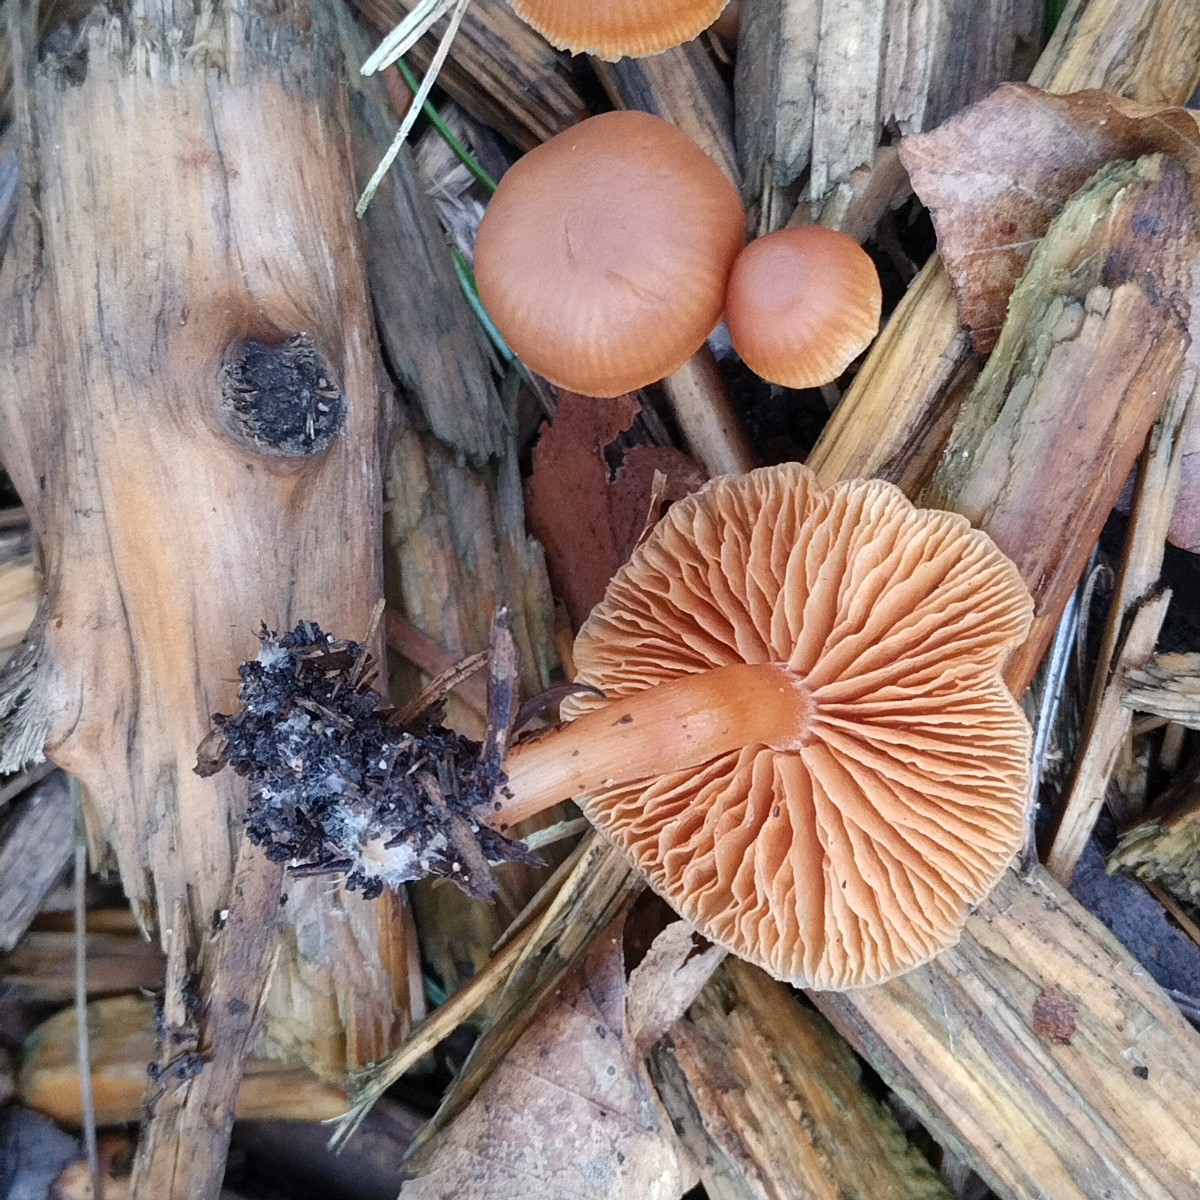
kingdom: Fungi
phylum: Basidiomycota
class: Agaricomycetes
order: Agaricales
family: Tubariaceae
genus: Tubaria
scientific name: Tubaria furfuracea
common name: kliddet fnughat
